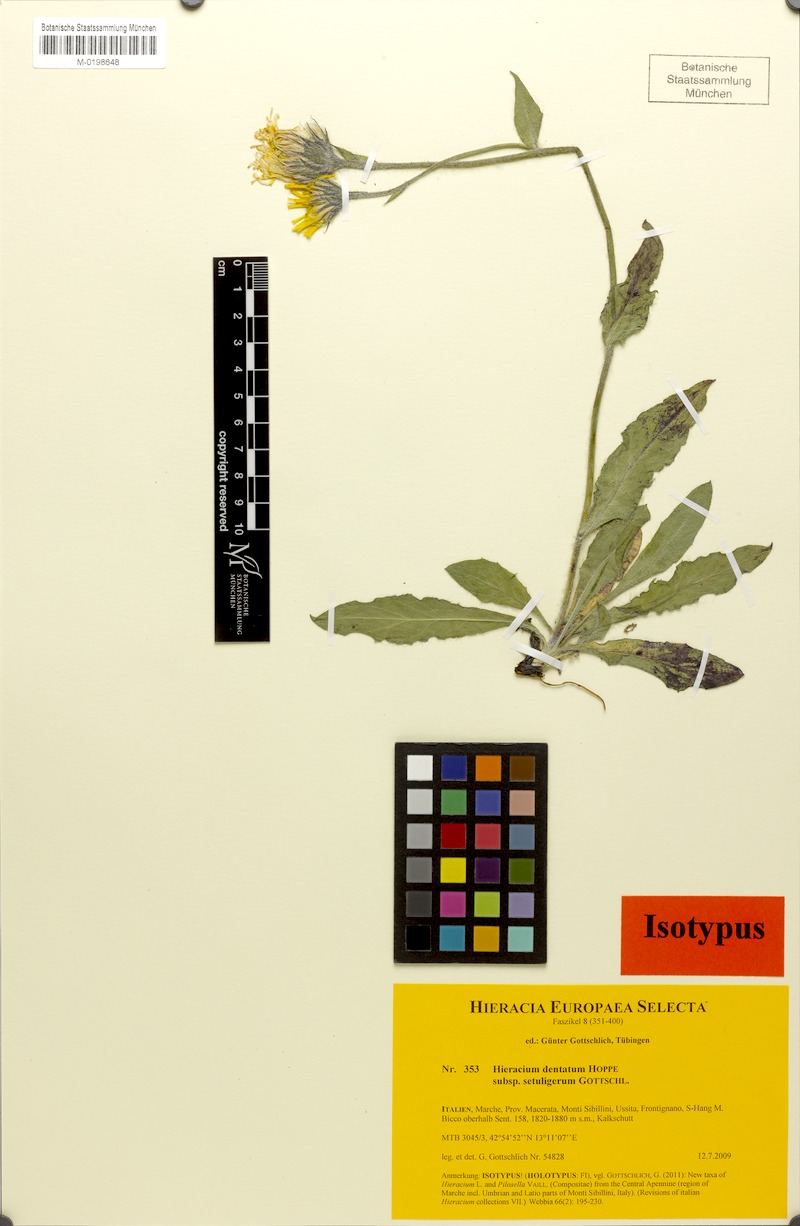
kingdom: Plantae
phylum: Tracheophyta
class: Magnoliopsida
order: Asterales
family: Asteraceae
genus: Hieracium
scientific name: Hieracium dentatum
